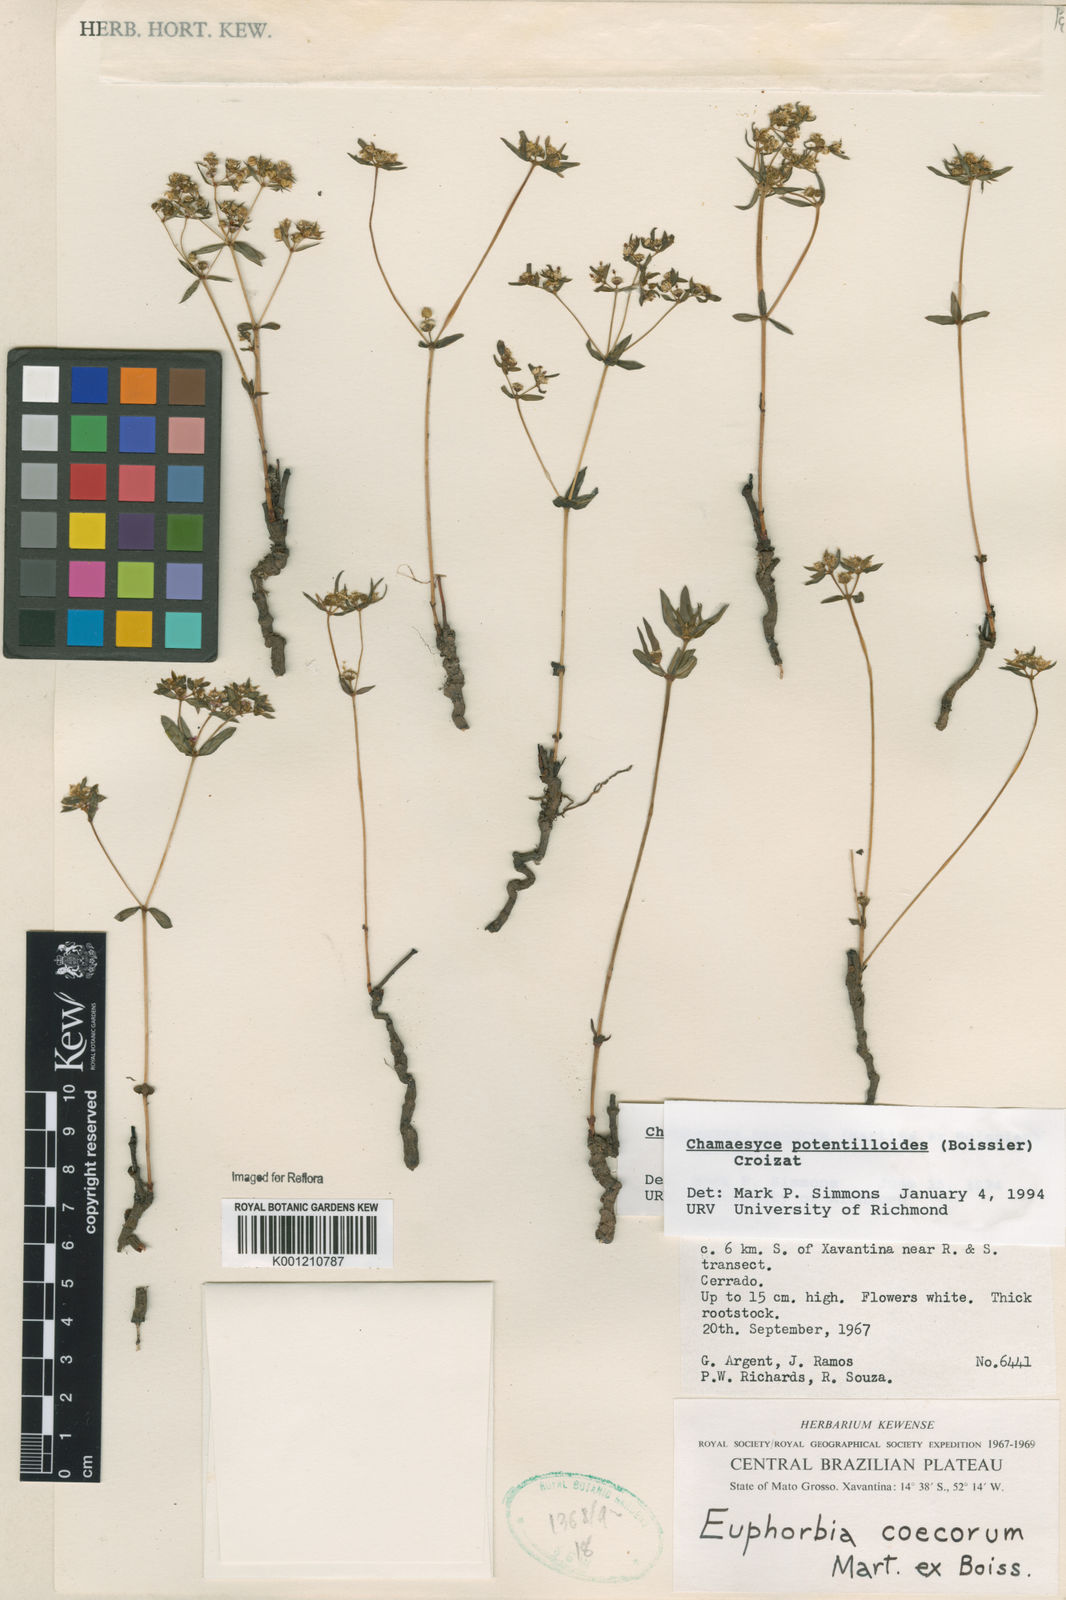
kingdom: Plantae
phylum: Tracheophyta
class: Magnoliopsida
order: Malpighiales
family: Euphorbiaceae
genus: Euphorbia
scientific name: Euphorbia potentilloides
